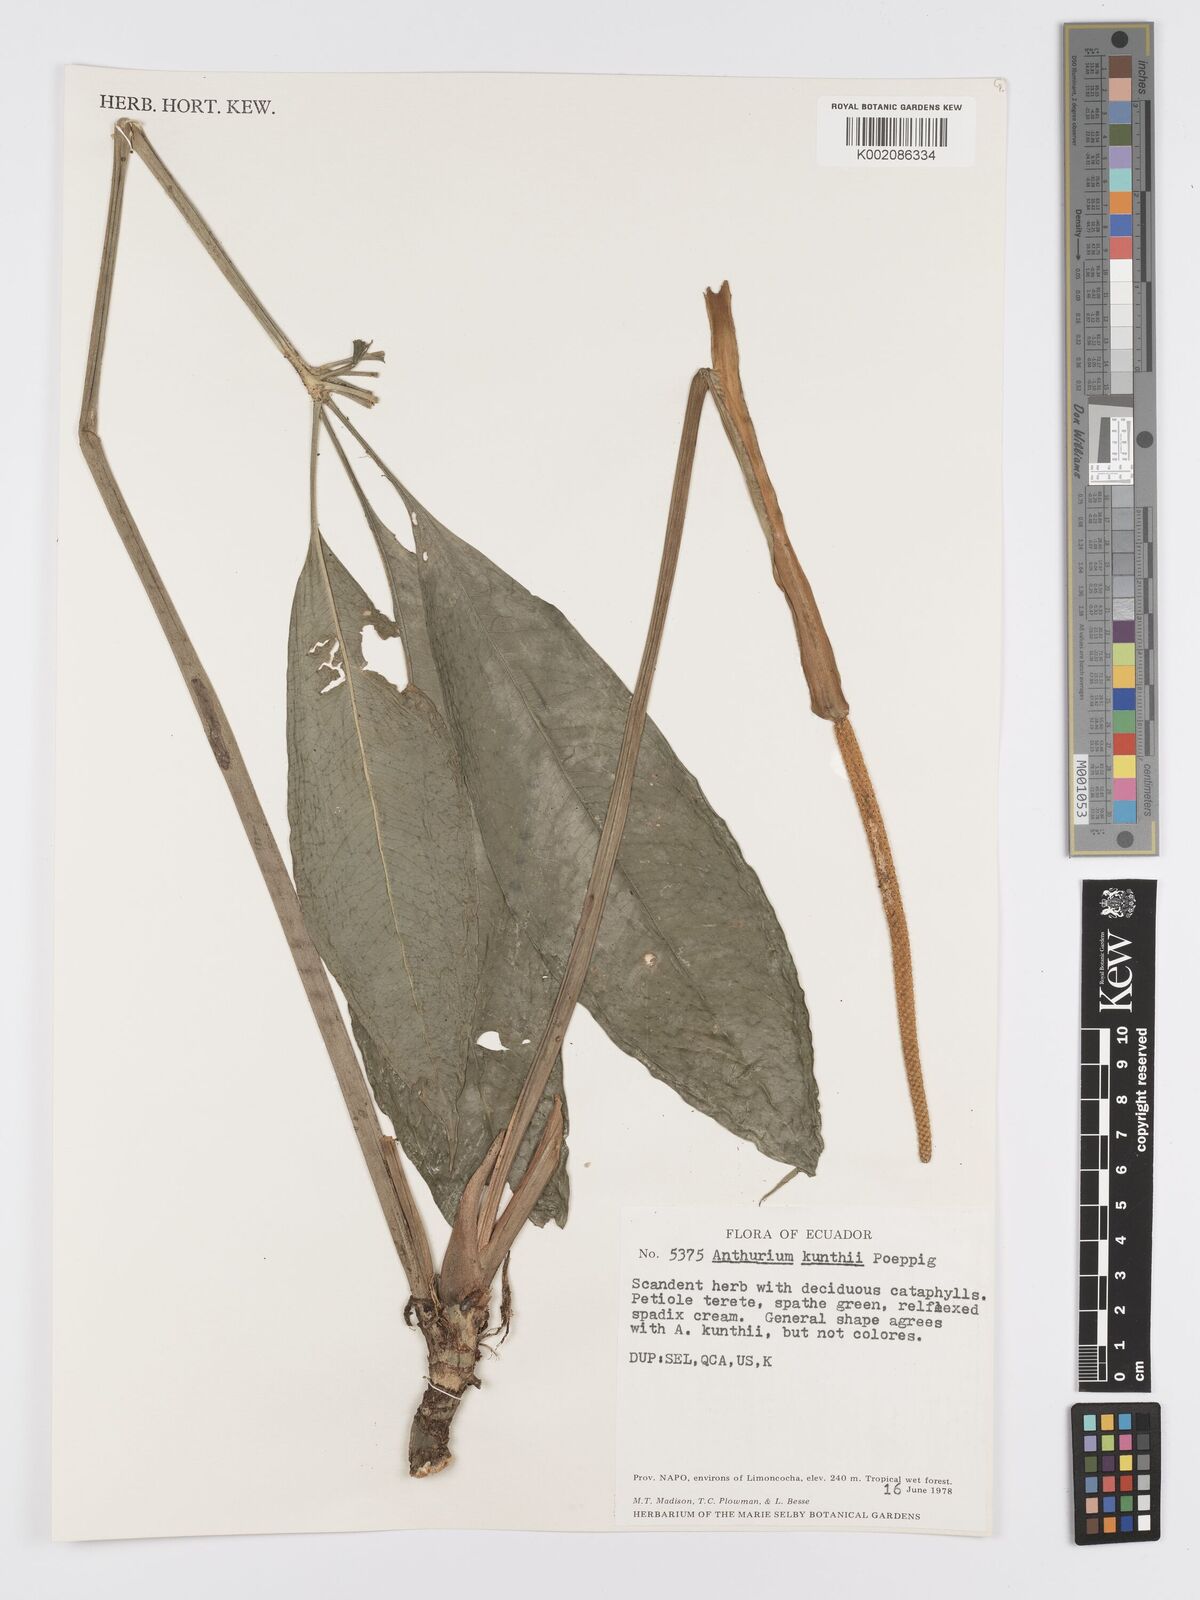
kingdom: Plantae
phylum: Tracheophyta
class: Liliopsida
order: Alismatales
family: Araceae
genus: Anthurium
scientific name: Anthurium kunthii
